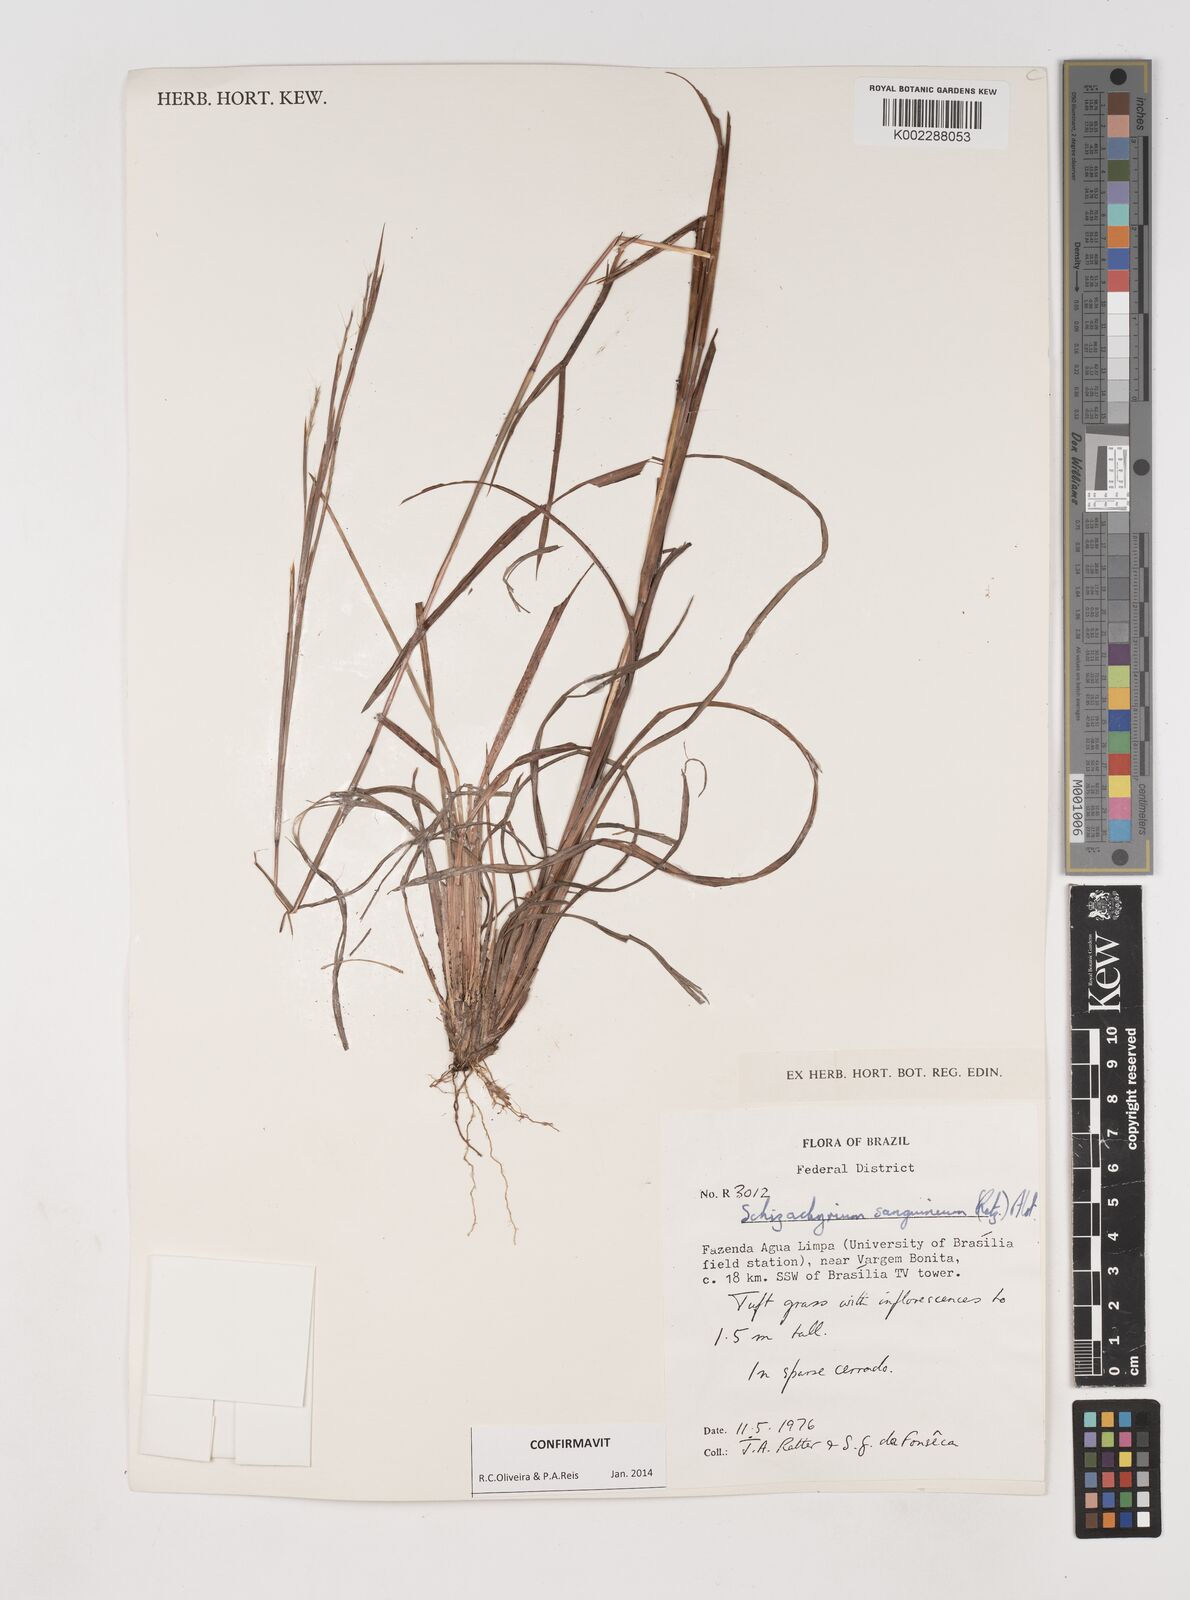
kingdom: Plantae
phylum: Tracheophyta
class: Liliopsida
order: Poales
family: Poaceae
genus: Schizachyrium
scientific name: Schizachyrium sanguineum
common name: Crimson bluestem
